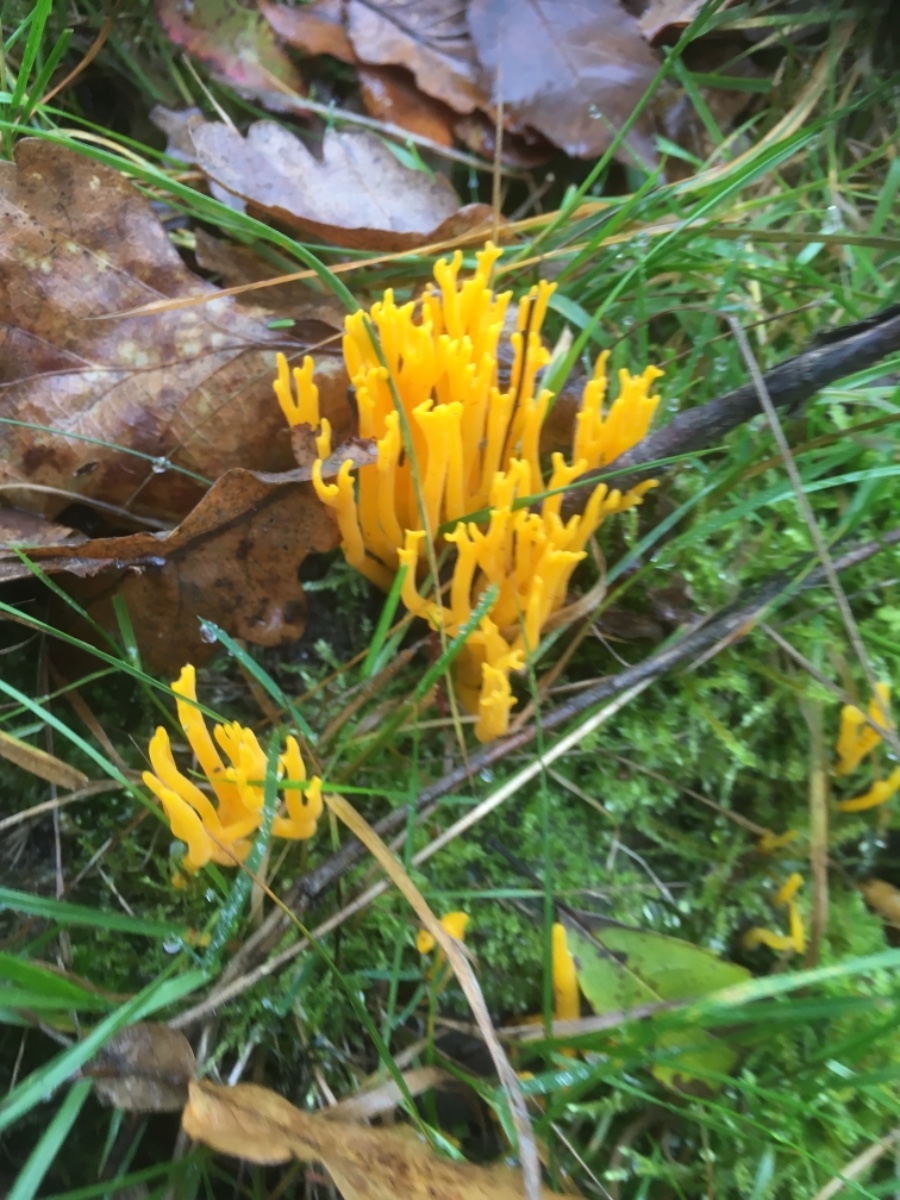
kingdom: Fungi
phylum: Basidiomycota
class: Dacrymycetes
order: Dacrymycetales
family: Dacrymycetaceae
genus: Calocera
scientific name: Calocera viscosa
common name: almindelig guldgaffel
